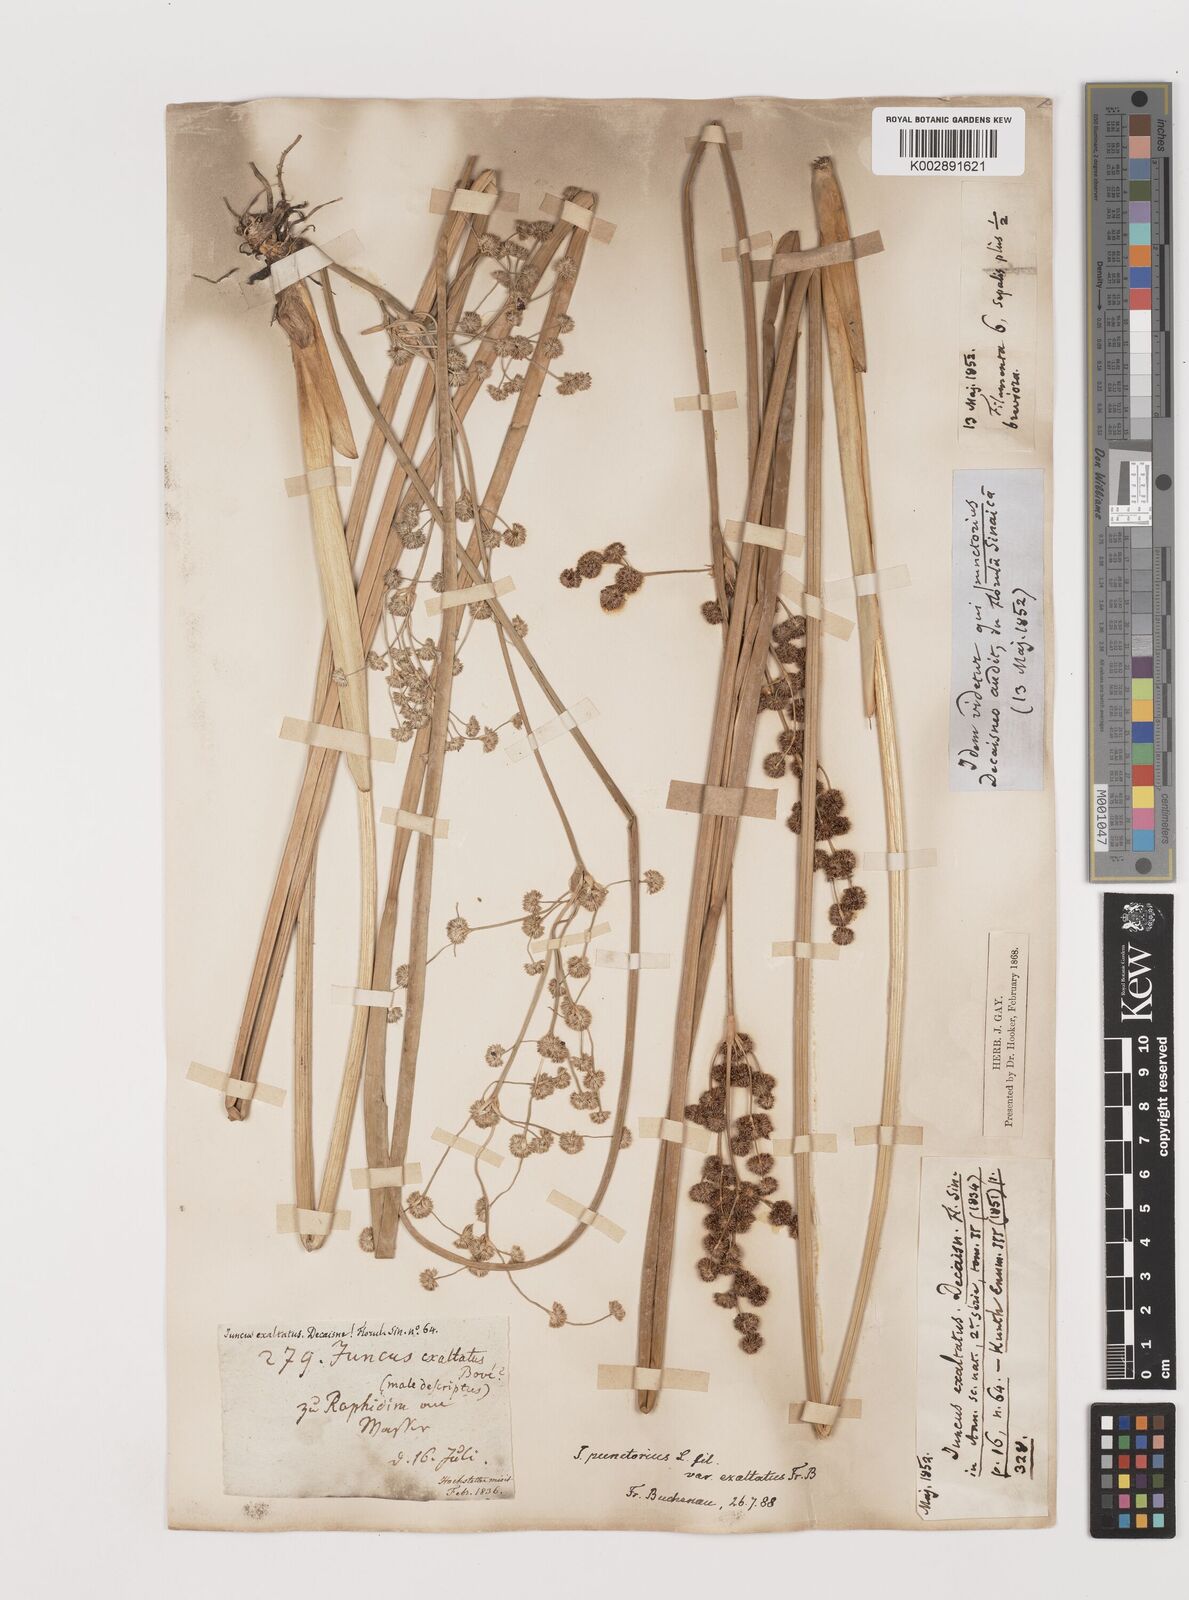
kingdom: Plantae
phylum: Tracheophyta
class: Liliopsida
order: Poales
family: Juncaceae
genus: Juncus
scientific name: Juncus punctorius
